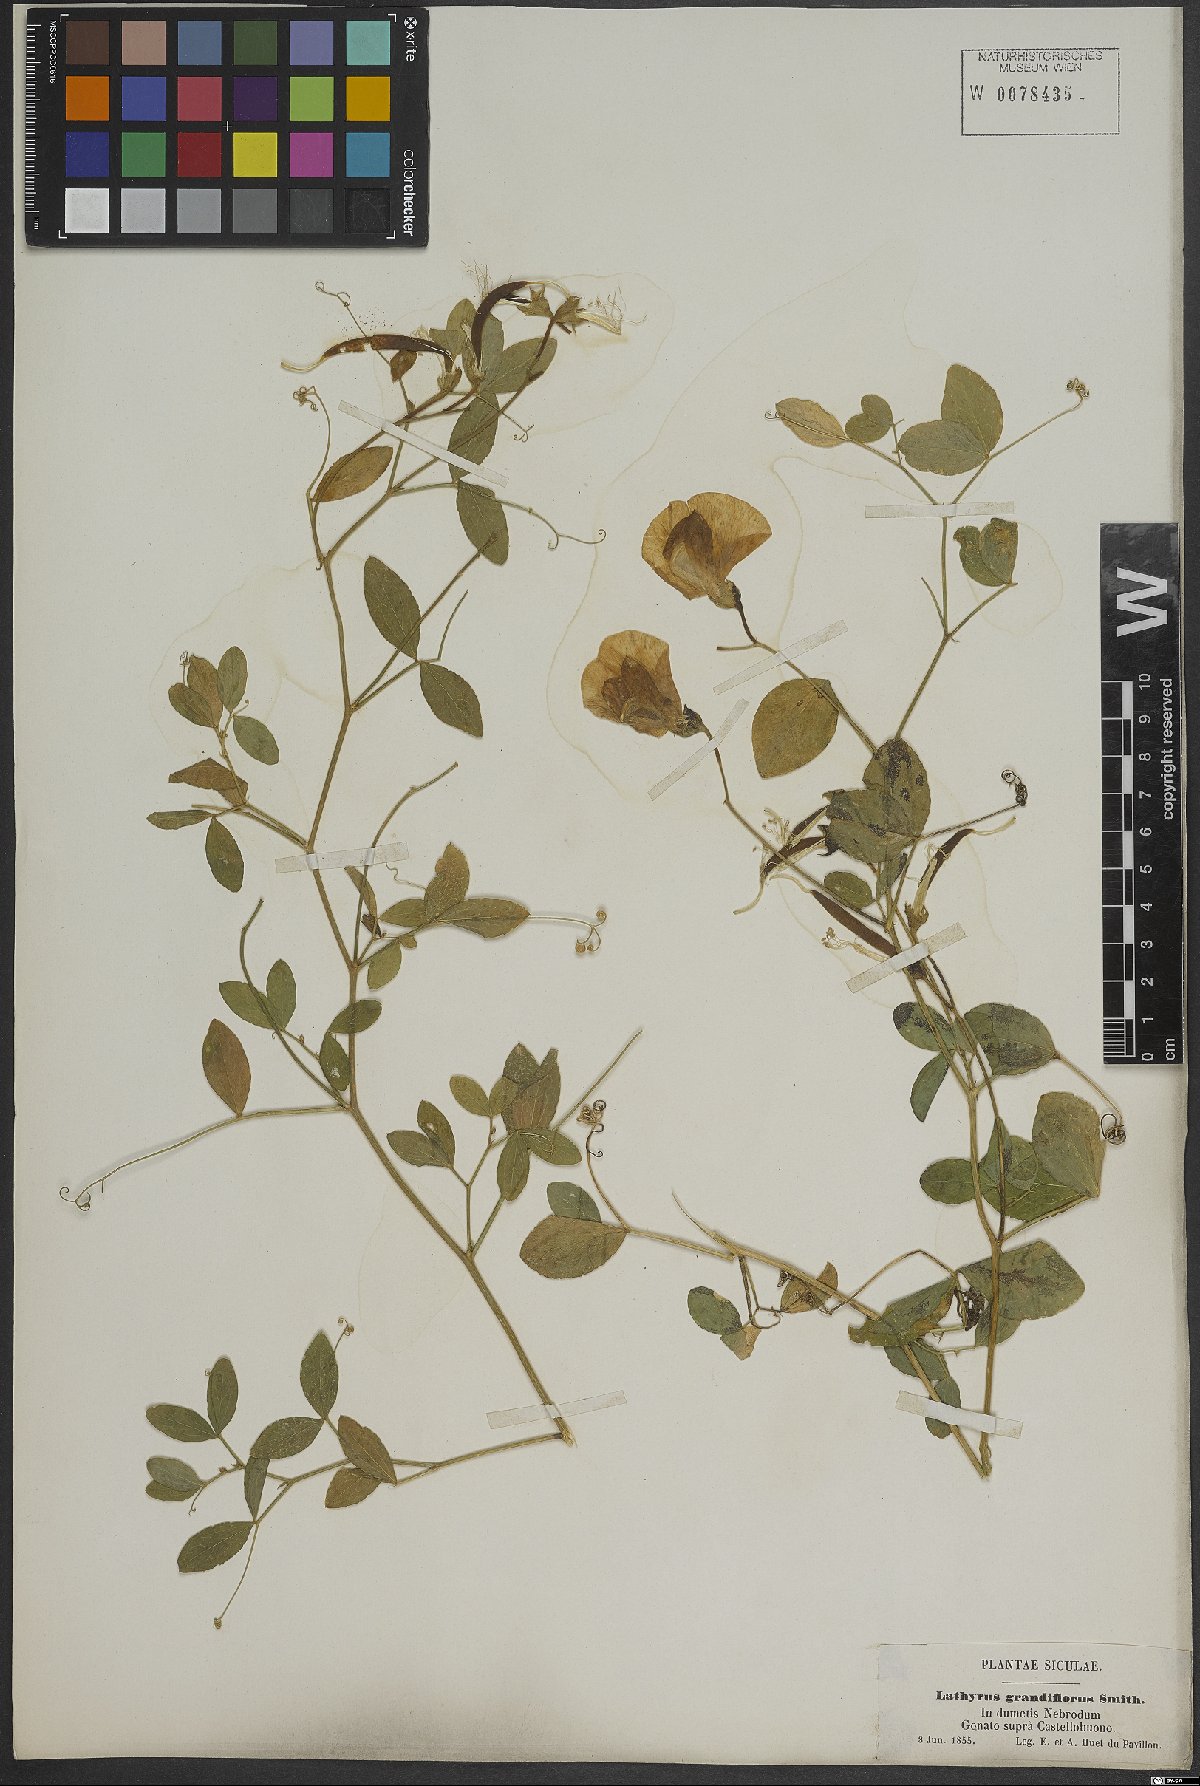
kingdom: Plantae
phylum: Tracheophyta
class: Magnoliopsida
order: Fabales
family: Fabaceae
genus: Lathyrus
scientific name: Lathyrus grandiflorus
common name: Two-flowered everlasting-pea
